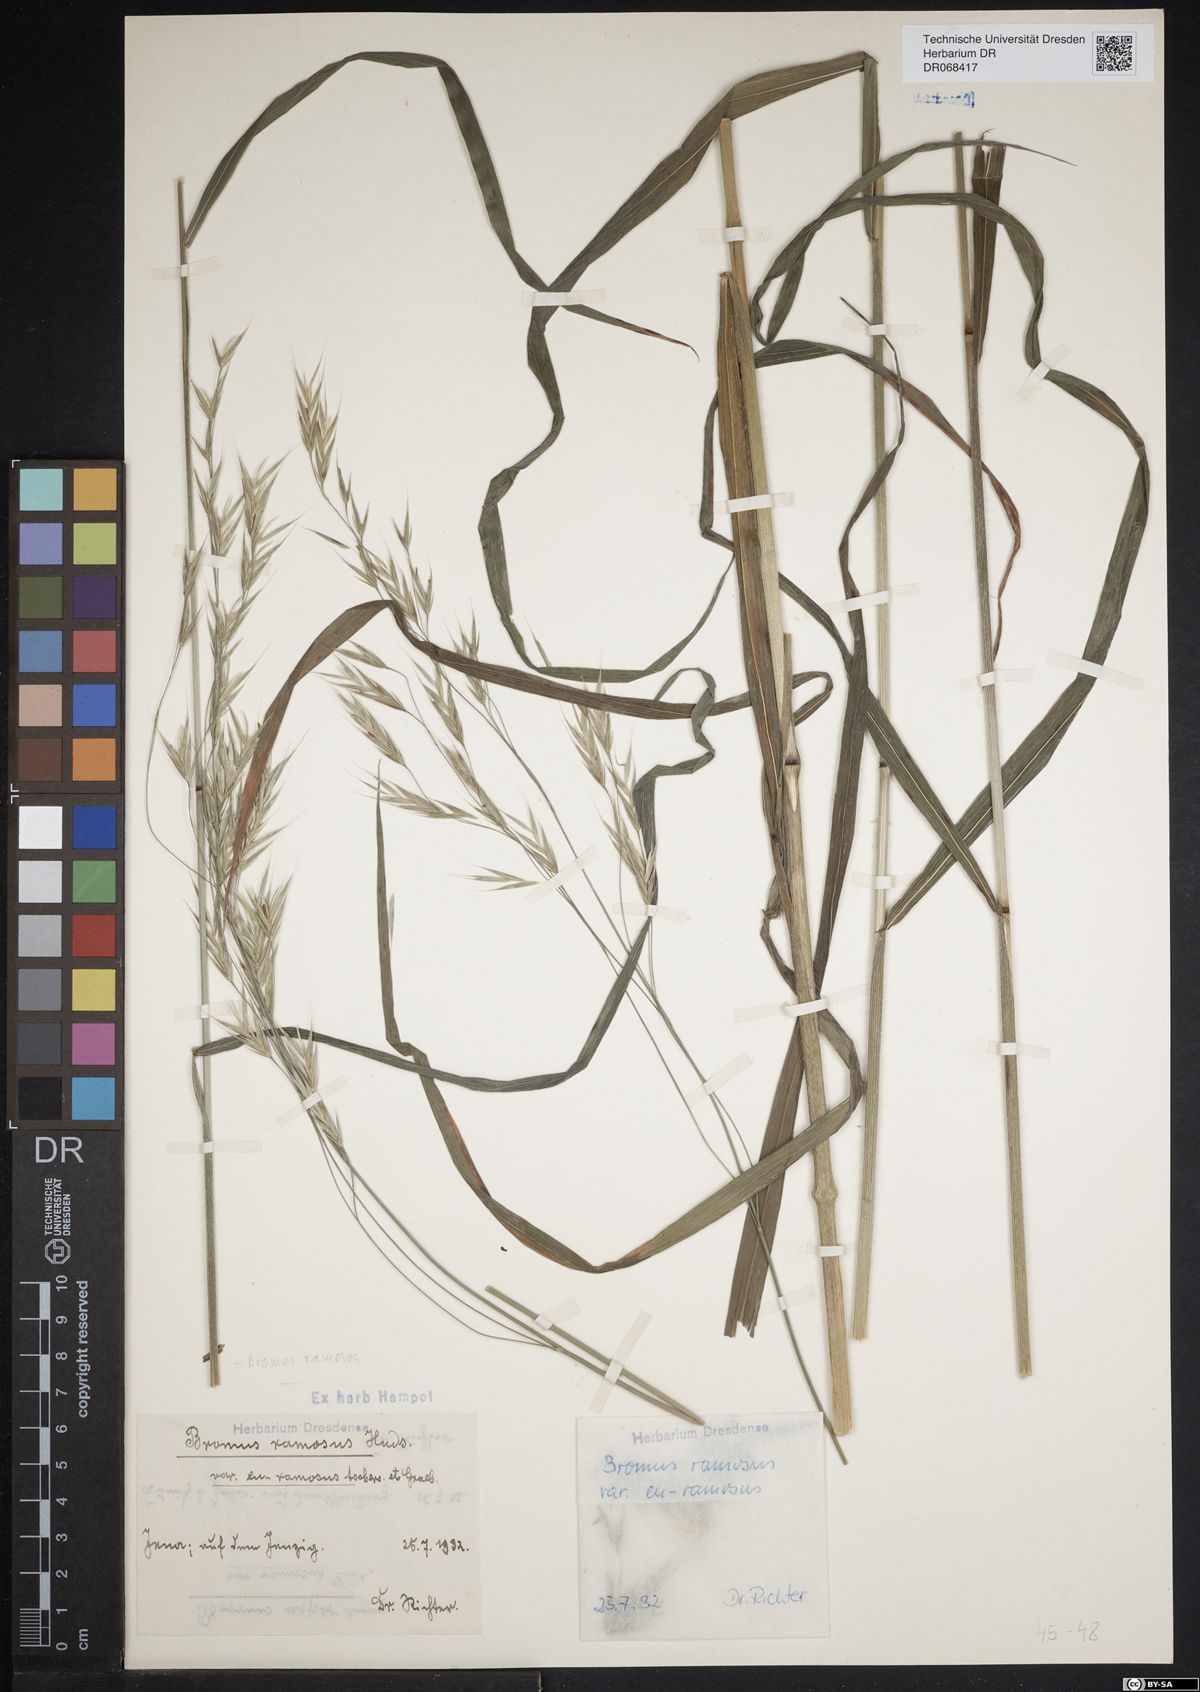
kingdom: Plantae
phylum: Tracheophyta
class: Liliopsida
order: Poales
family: Poaceae
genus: Bromus
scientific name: Bromus ramosus
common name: Hairy brome
